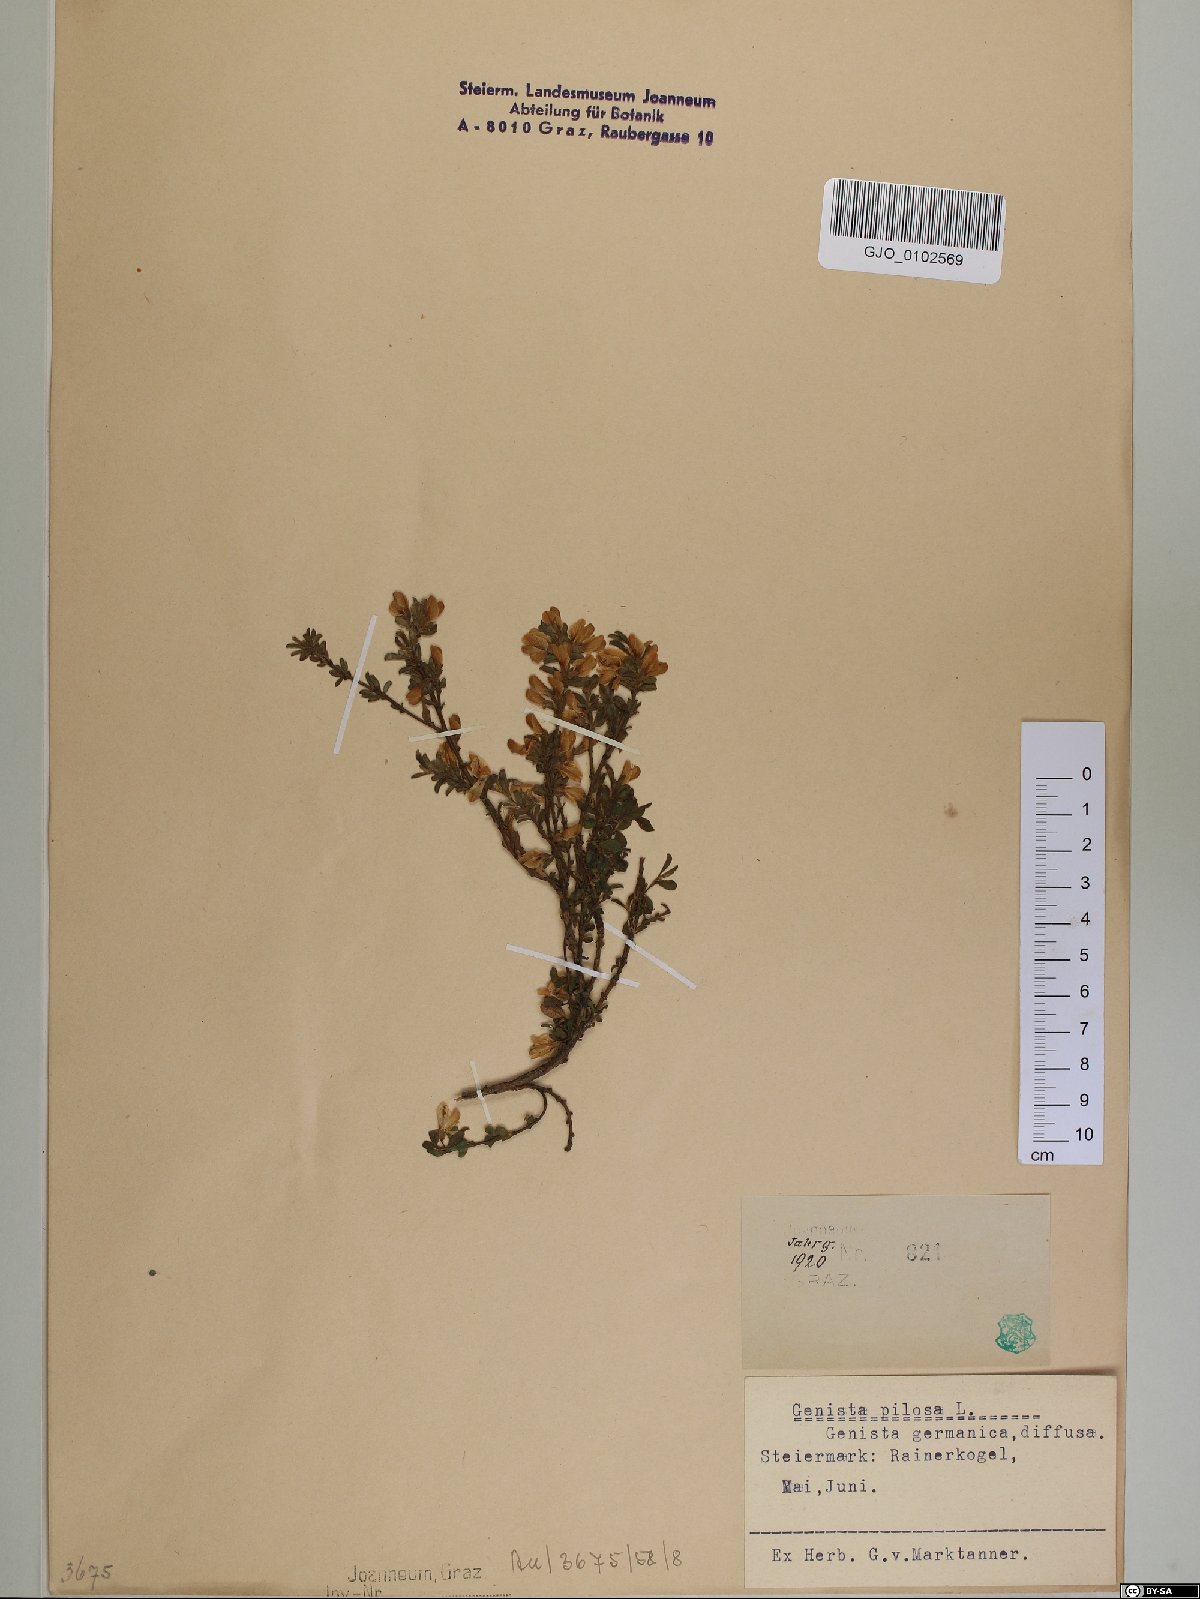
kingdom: Plantae
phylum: Tracheophyta
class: Magnoliopsida
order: Fabales
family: Fabaceae
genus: Genista
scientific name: Genista pilosa
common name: Hairy greenweed
